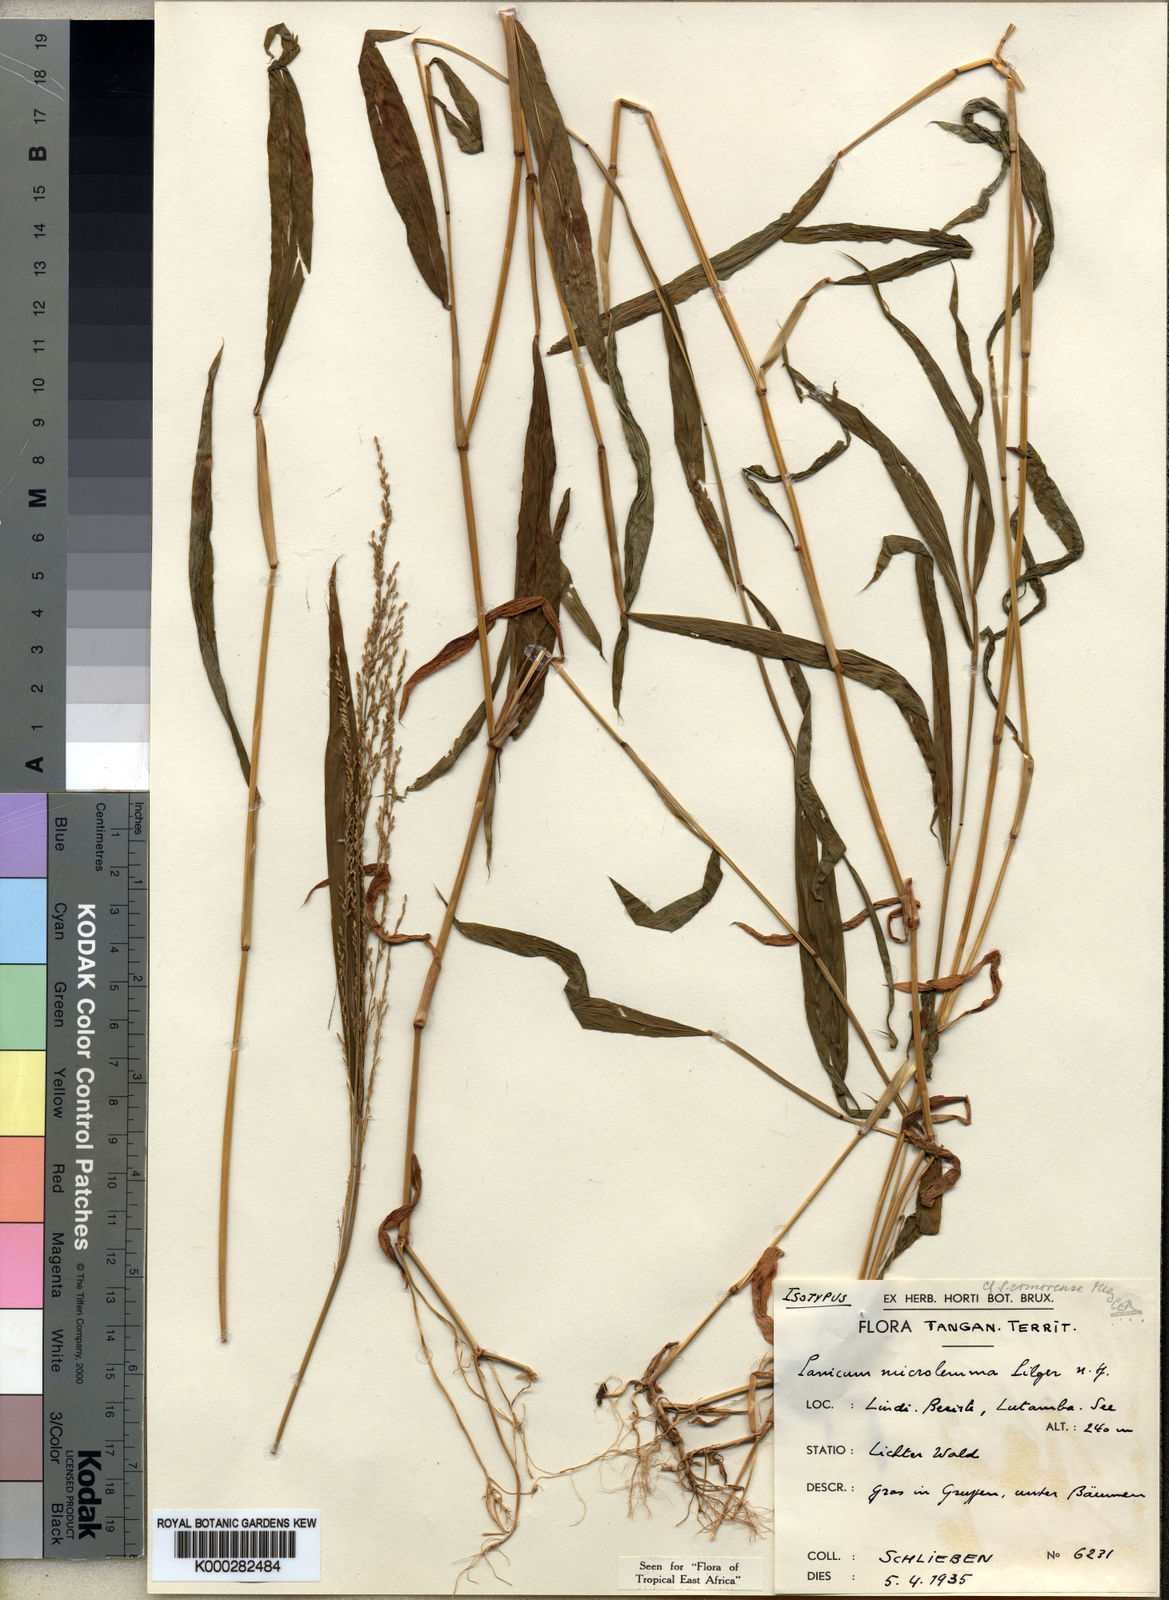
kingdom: Plantae
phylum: Tracheophyta
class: Liliopsida
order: Poales
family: Poaceae
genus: Panicum
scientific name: Panicum comorense
